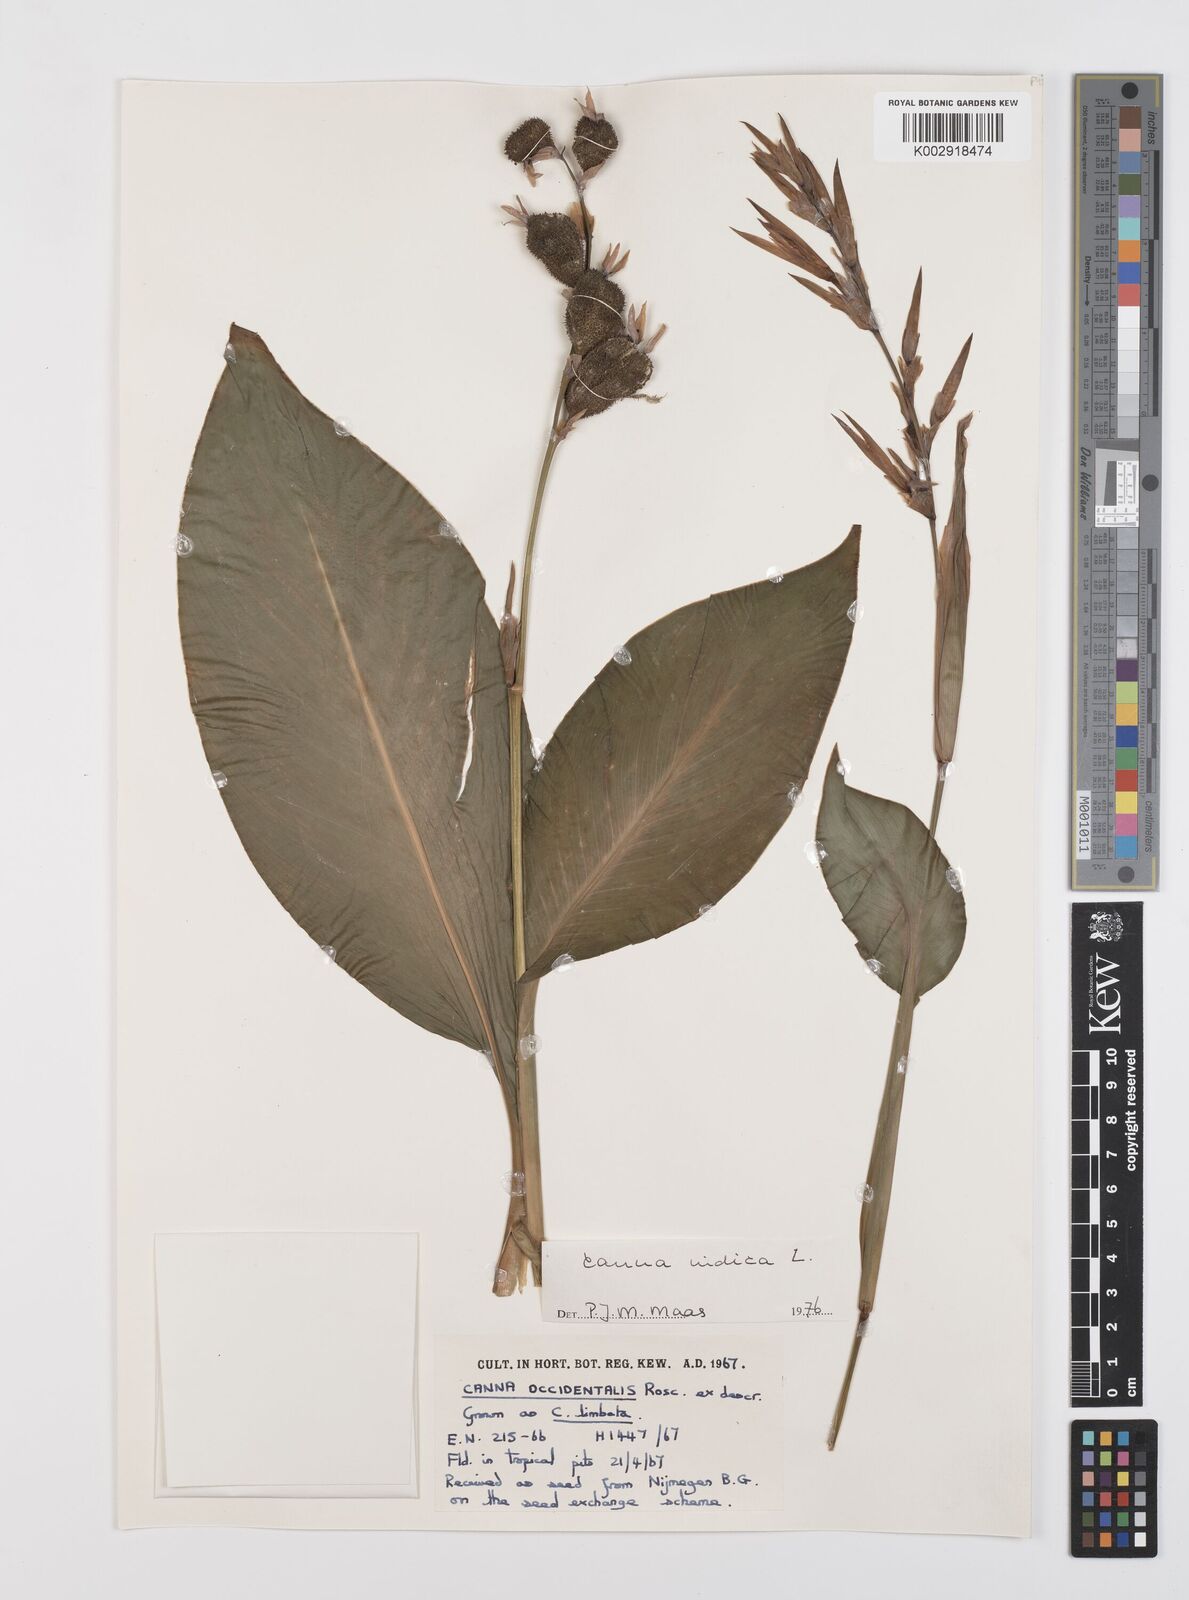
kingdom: Plantae
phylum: Tracheophyta
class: Liliopsida
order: Zingiberales
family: Cannaceae
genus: Canna
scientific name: Canna indica
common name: Indian shot
